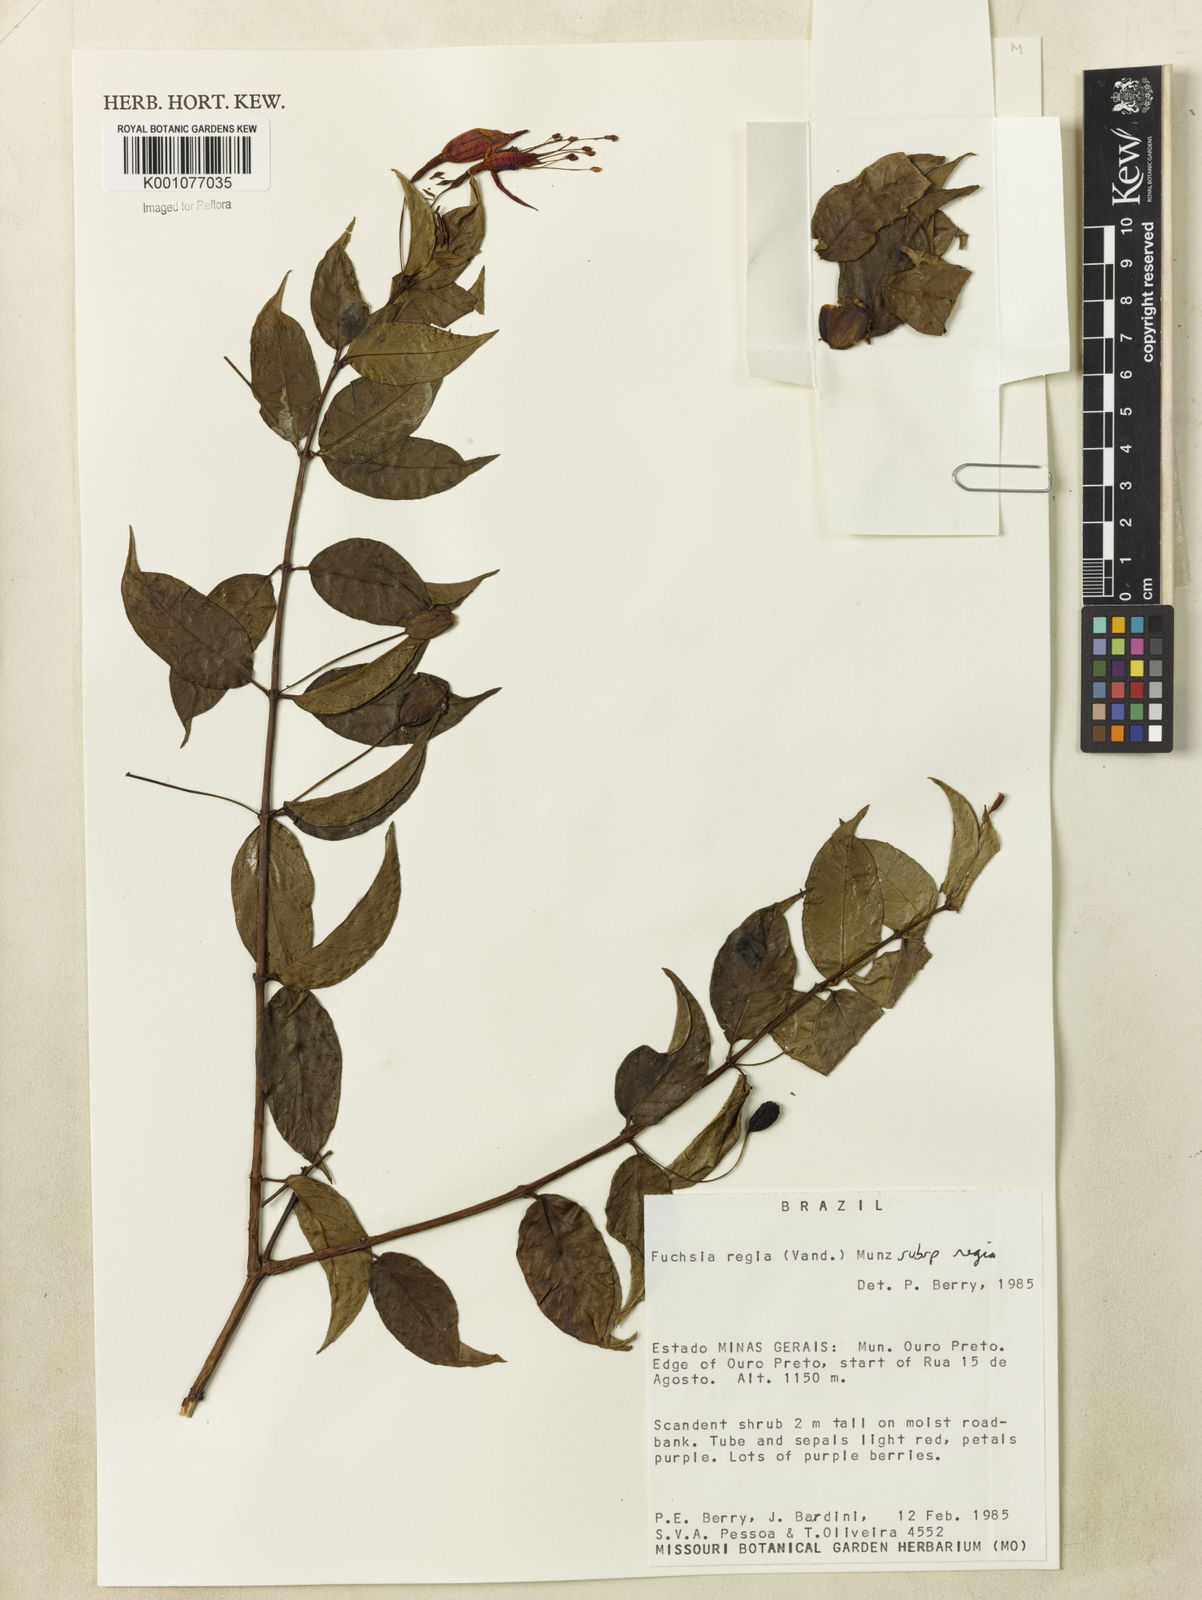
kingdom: Plantae
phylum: Tracheophyta
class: Magnoliopsida
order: Myrtales
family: Onagraceae
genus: Fuchsia
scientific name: Fuchsia regia
